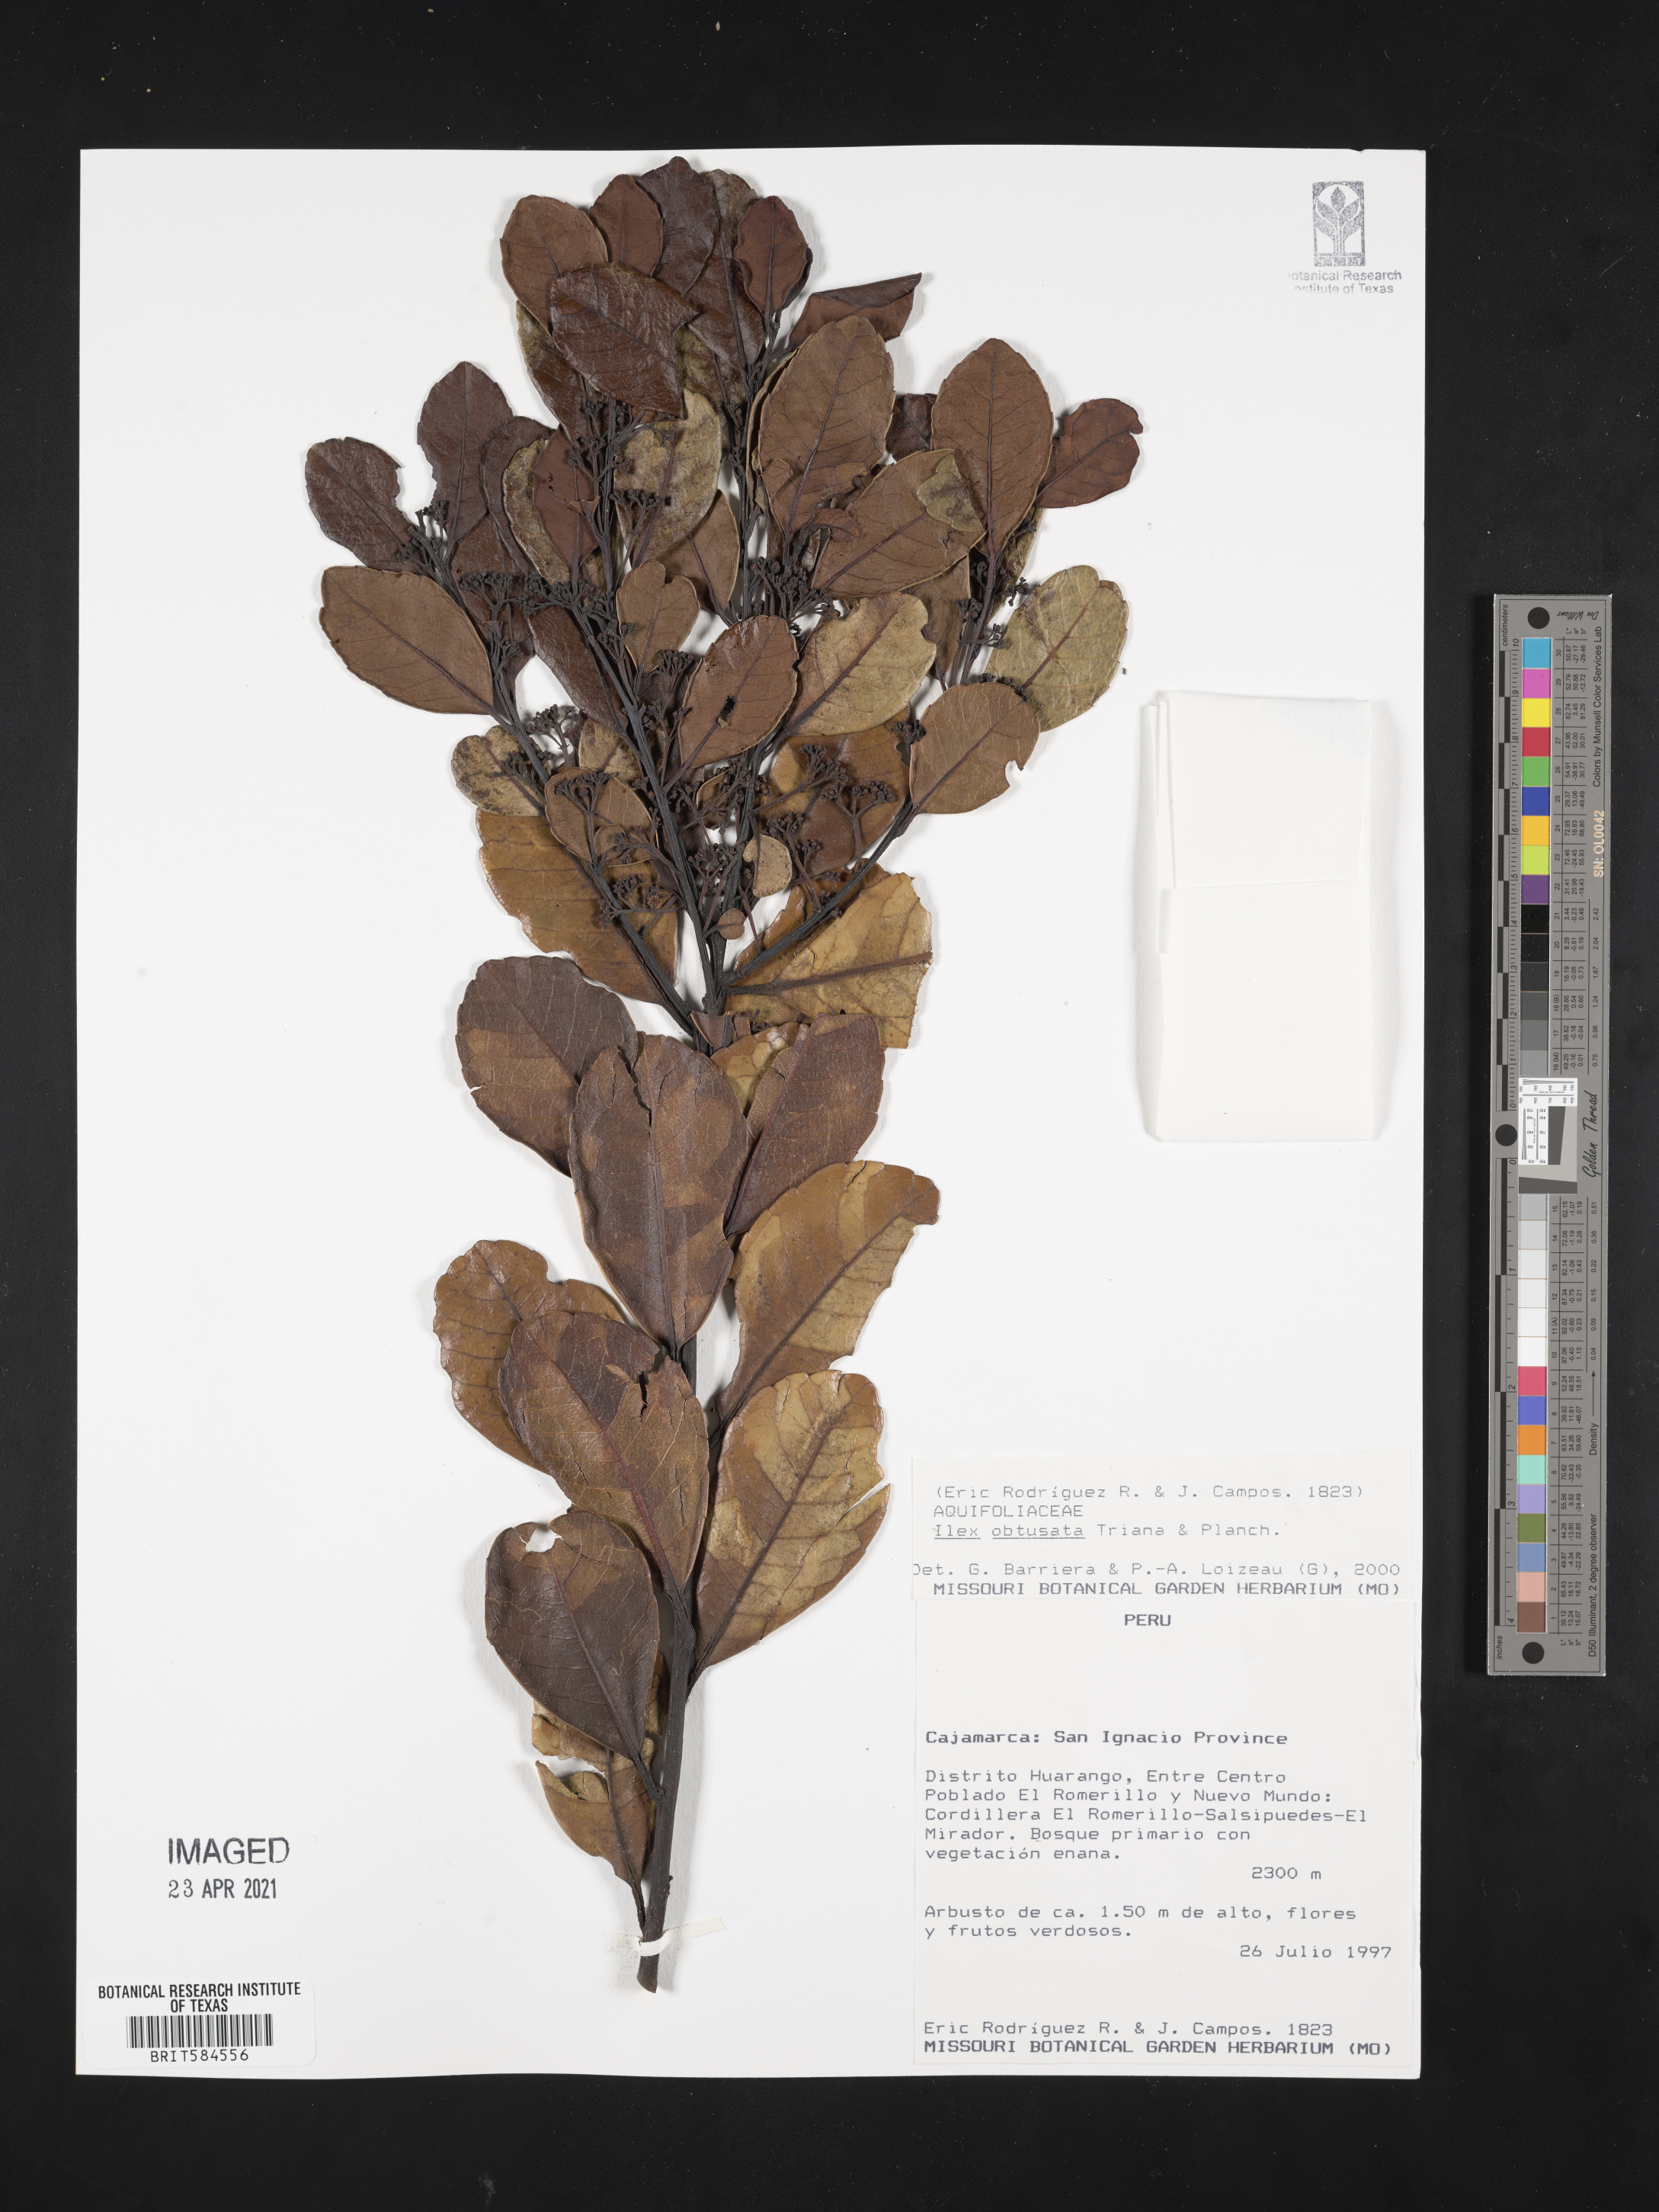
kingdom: Plantae
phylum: Tracheophyta
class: Magnoliopsida
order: Aquifoliales
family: Aquifoliaceae
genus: Ilex
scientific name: Ilex obtusata
